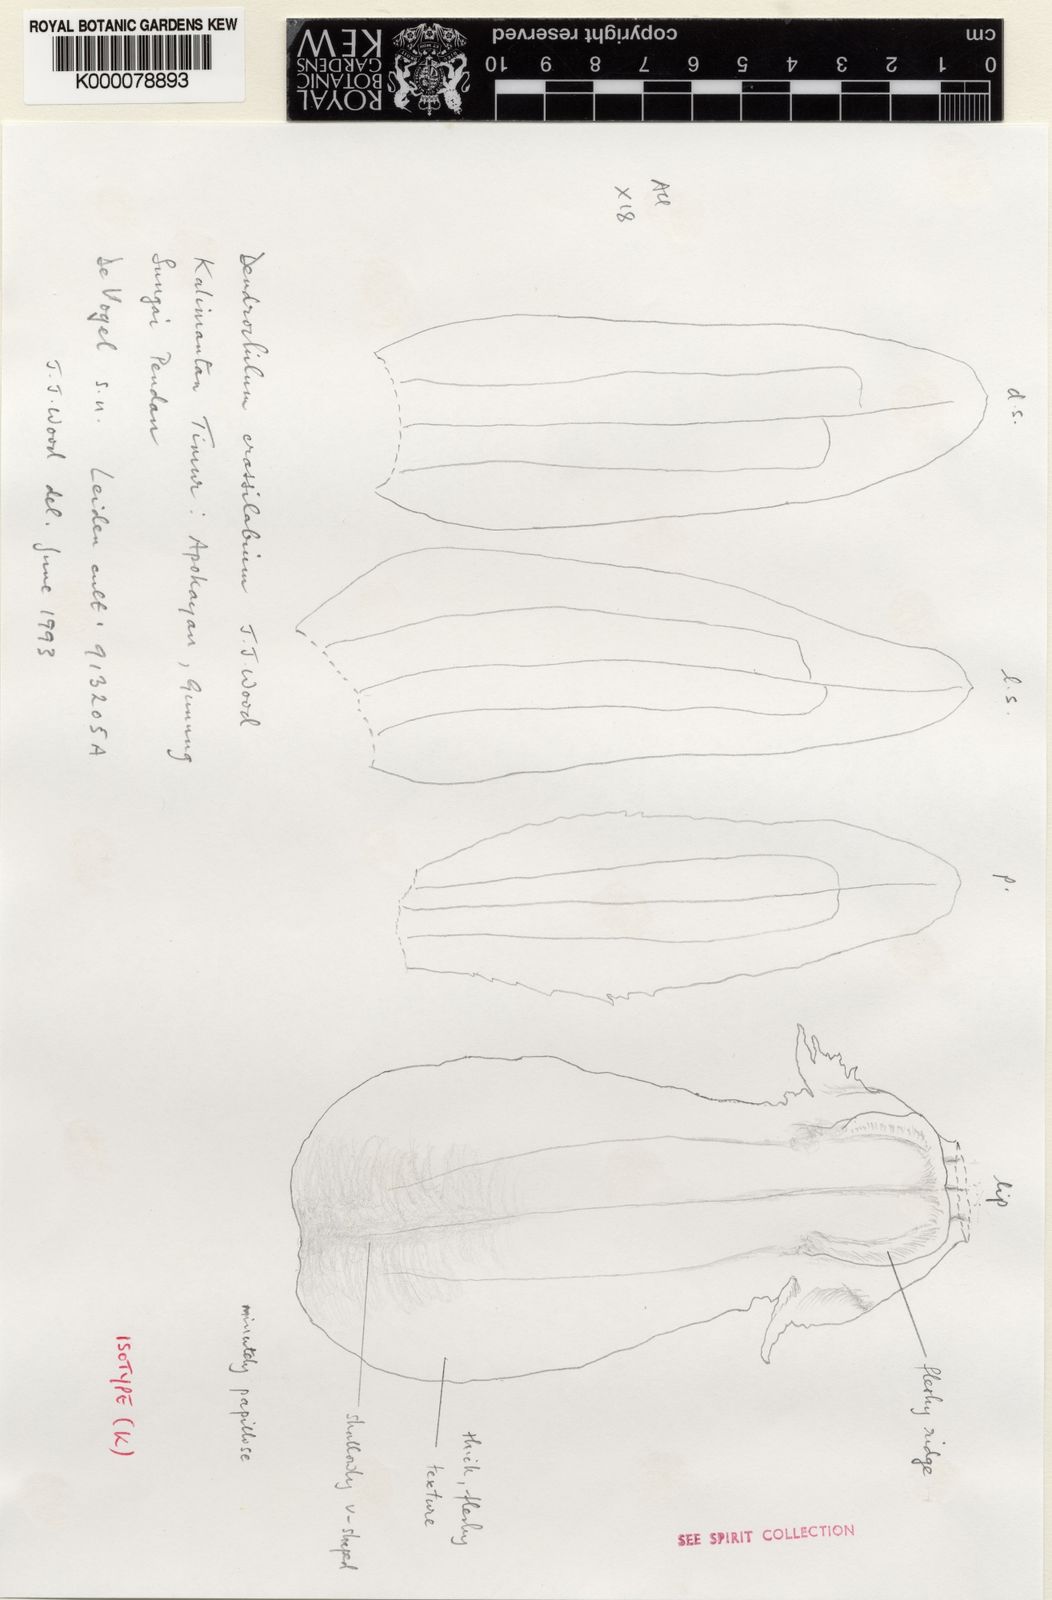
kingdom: Plantae
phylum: Tracheophyta
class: Liliopsida
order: Asparagales
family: Orchidaceae
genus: Coelogyne
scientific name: Coelogyne crassilabia
